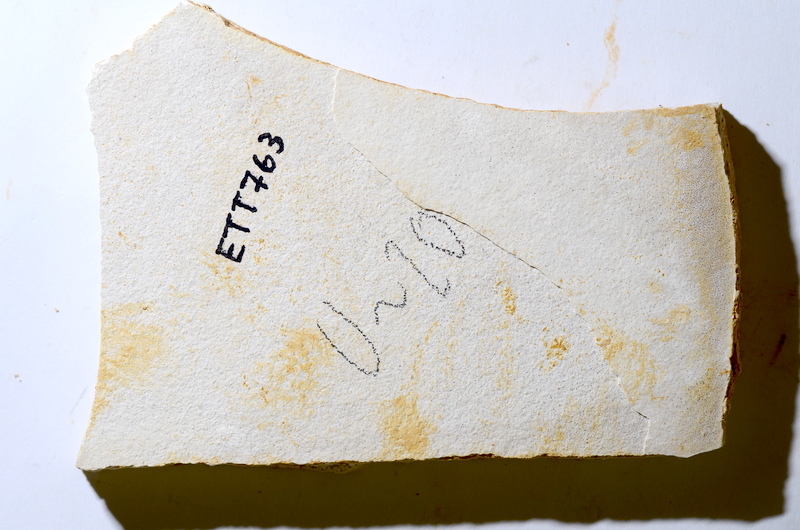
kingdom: Animalia
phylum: Chordata
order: Salmoniformes
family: Orthogonikleithridae
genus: Orthogonikleithrus
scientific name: Orthogonikleithrus hoelli
